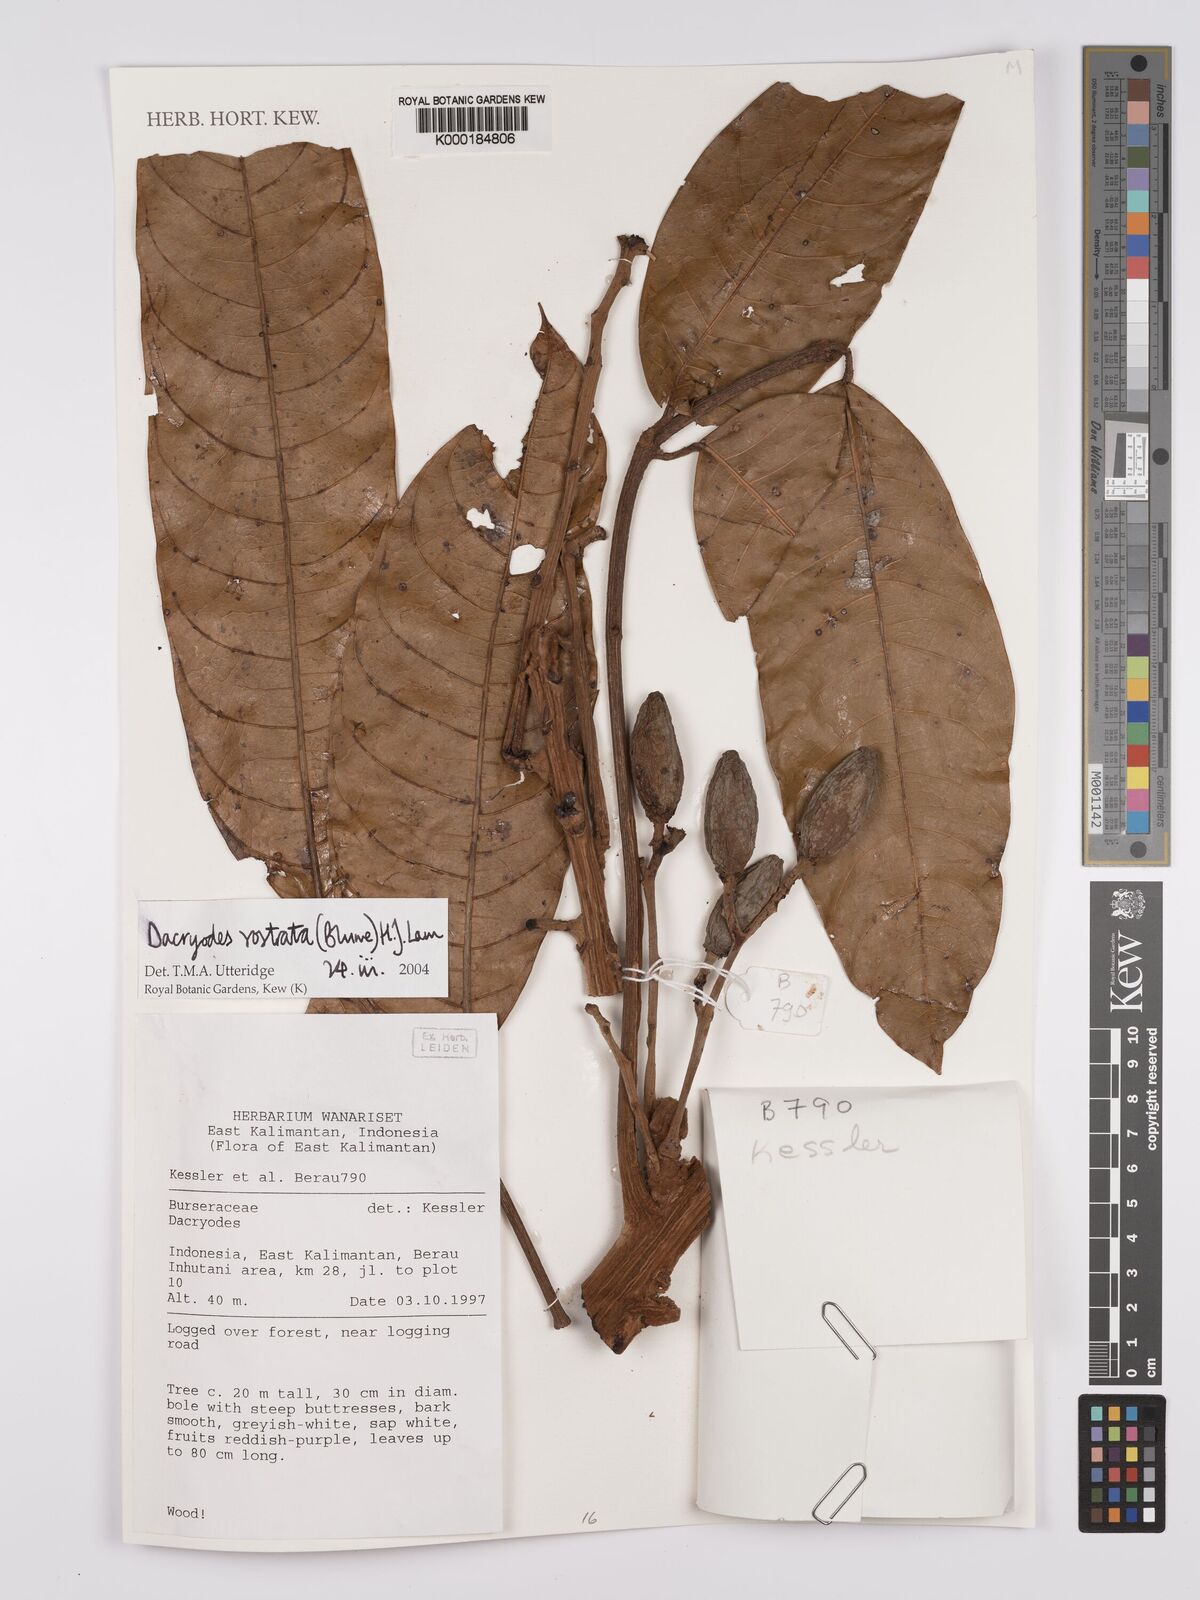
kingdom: Plantae
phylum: Tracheophyta
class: Magnoliopsida
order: Sapindales
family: Burseraceae
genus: Dacryodes
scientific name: Dacryodes rostrata
